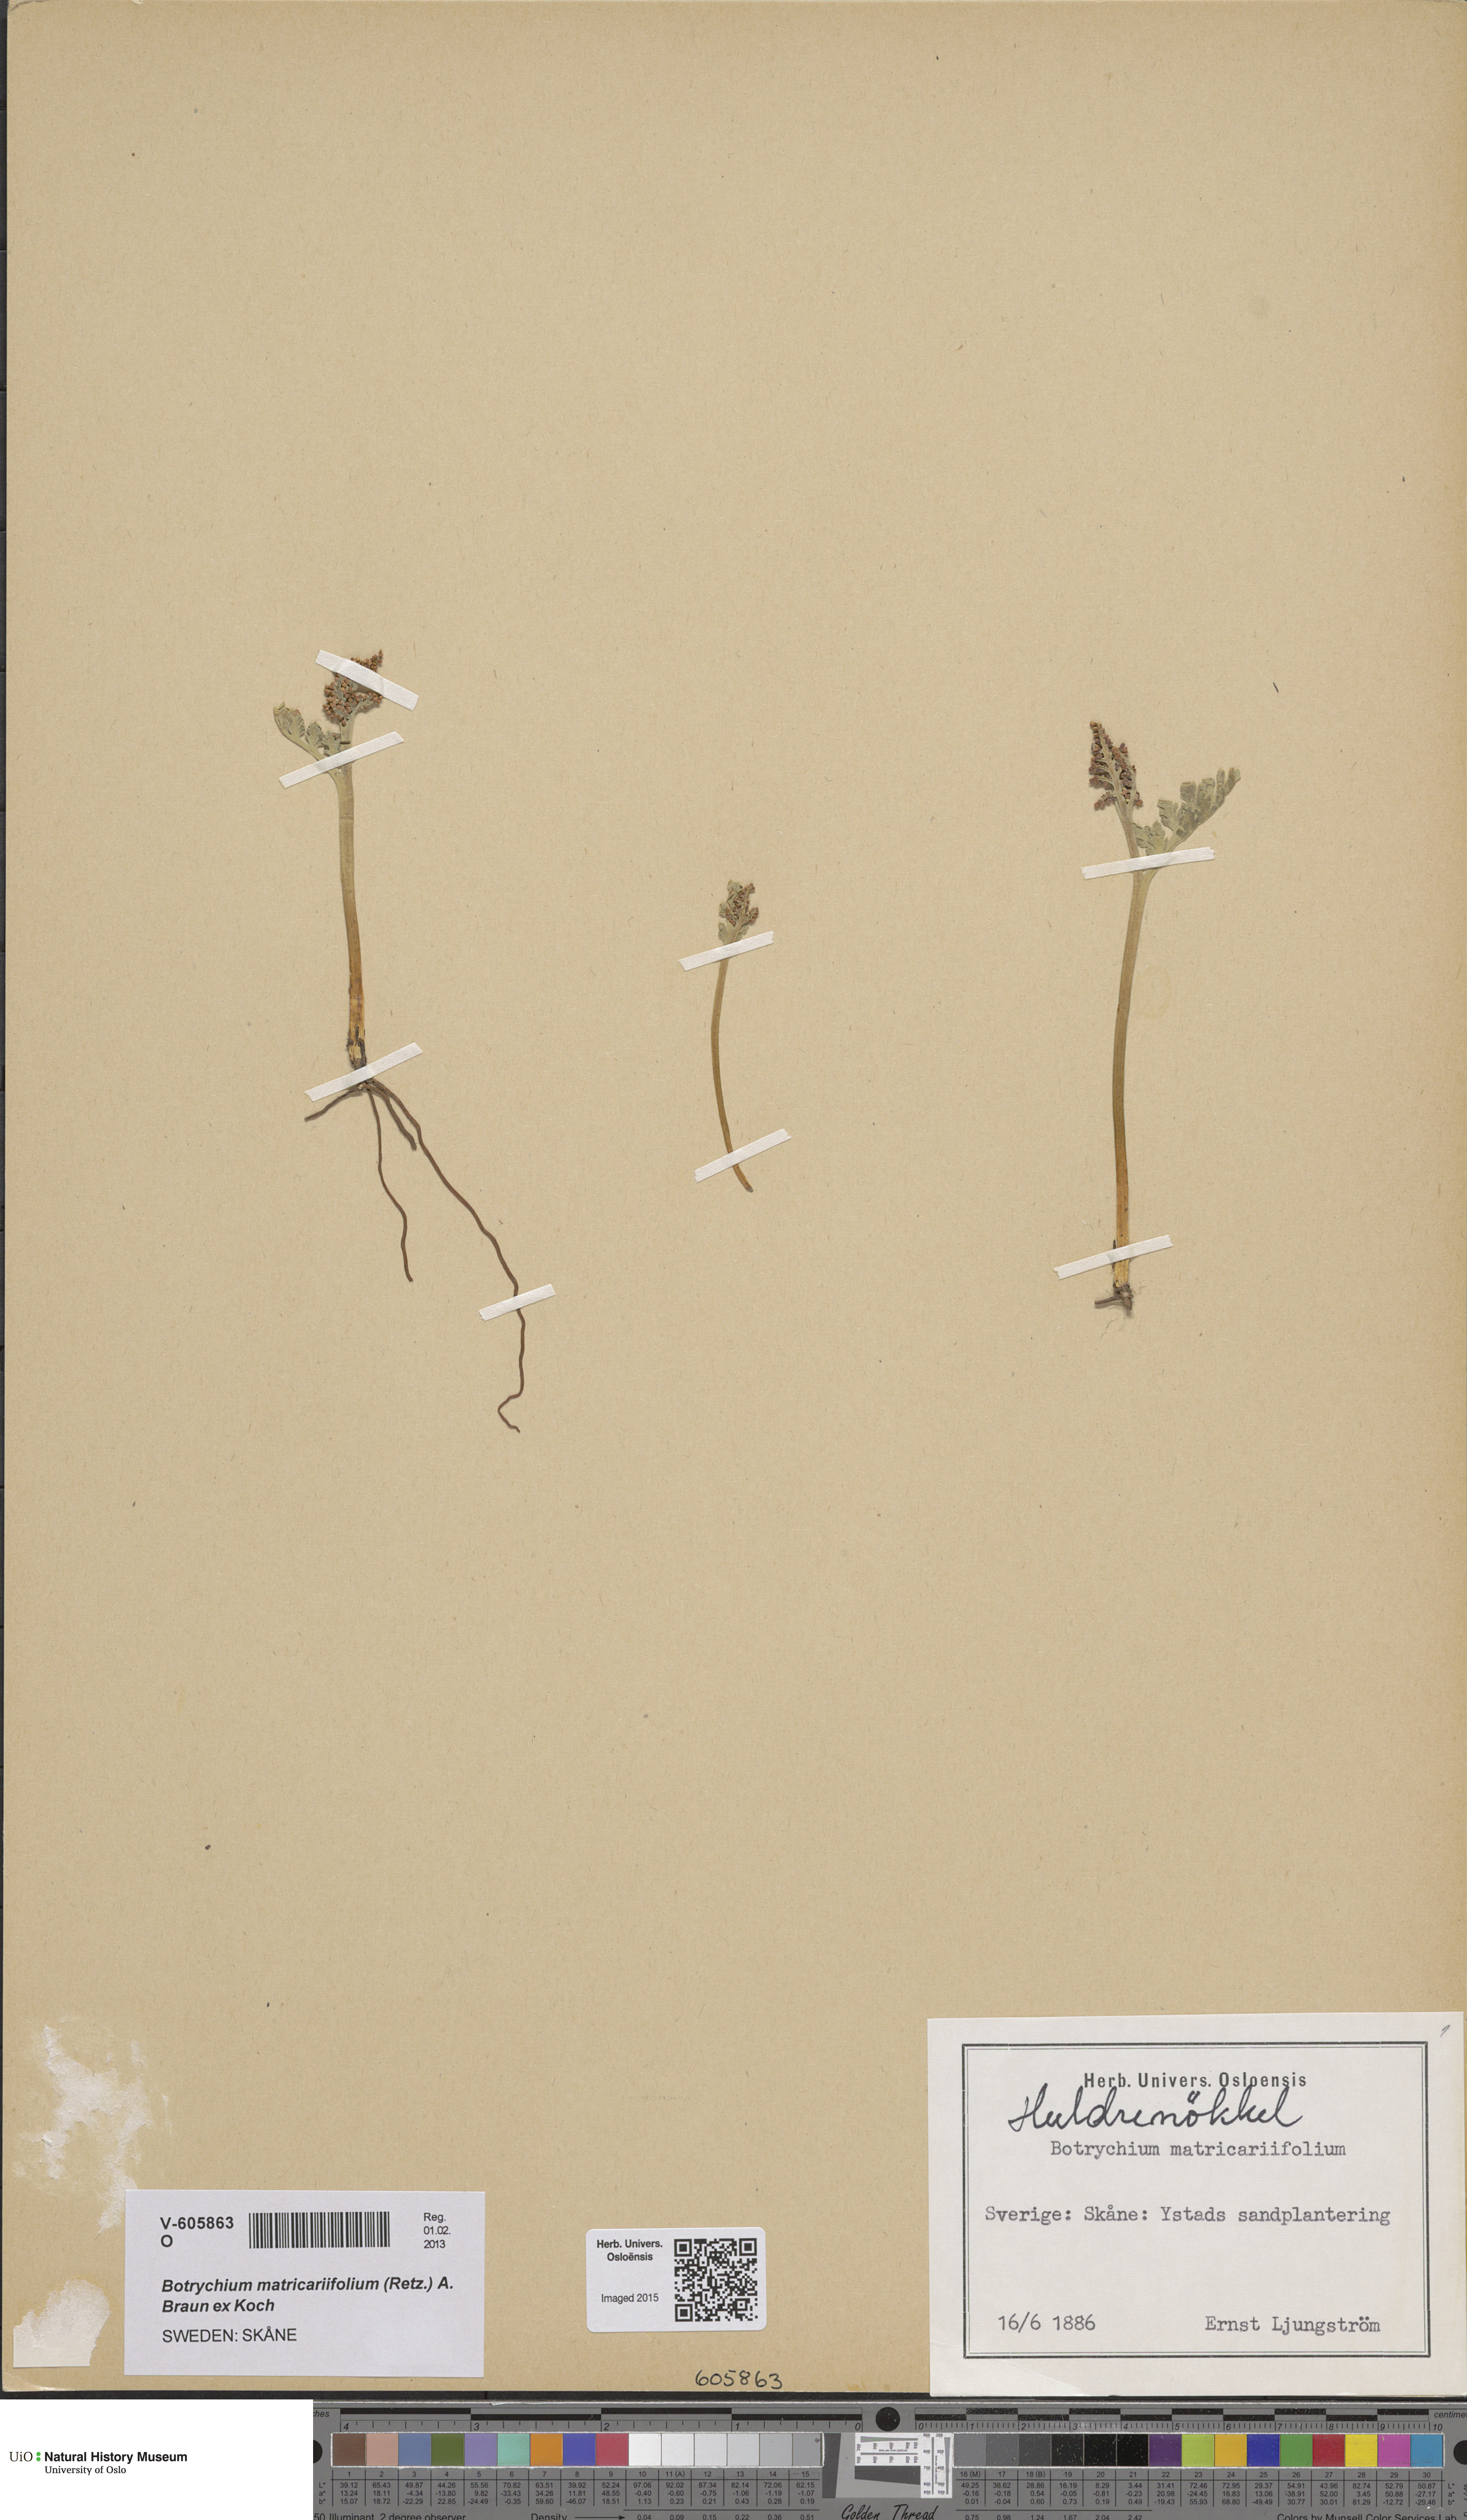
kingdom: Plantae
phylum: Tracheophyta
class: Polypodiopsida
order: Ophioglossales
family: Ophioglossaceae
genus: Botrychium
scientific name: Botrychium lanceolatum
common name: Lance-leaved moonwort
